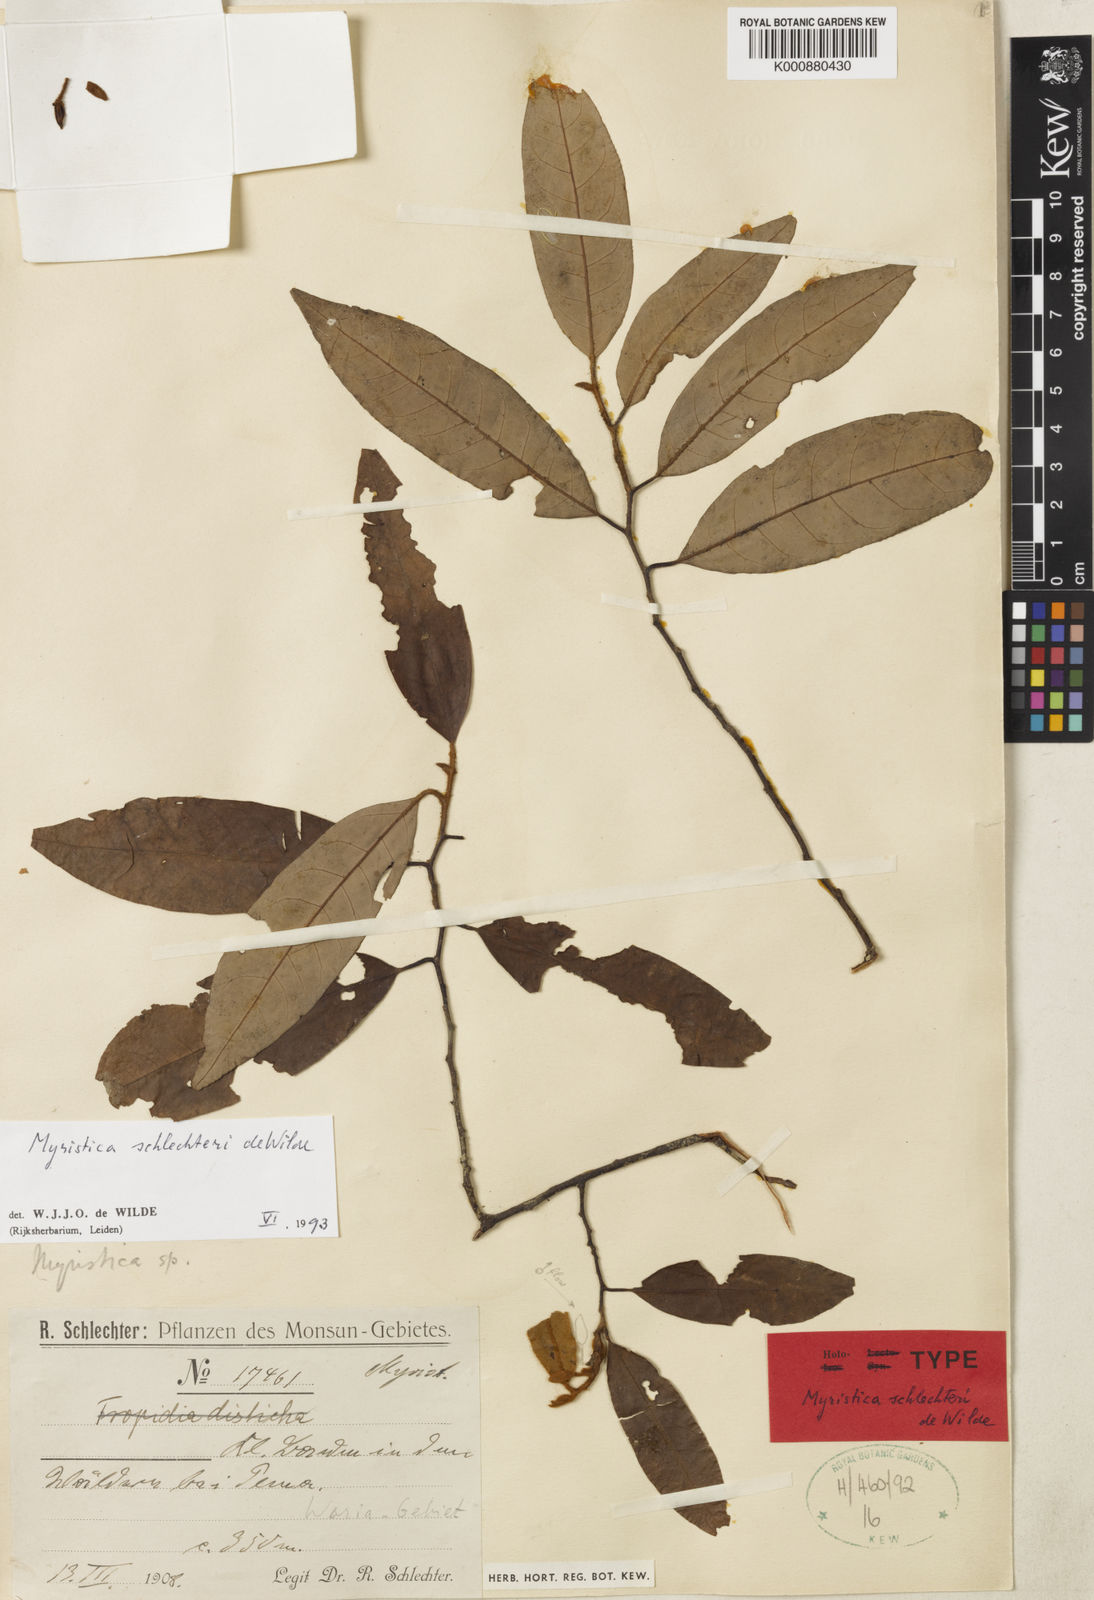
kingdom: Plantae
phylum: Tracheophyta
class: Magnoliopsida
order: Magnoliales
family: Myristicaceae
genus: Myristica
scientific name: Myristica schlechteri
